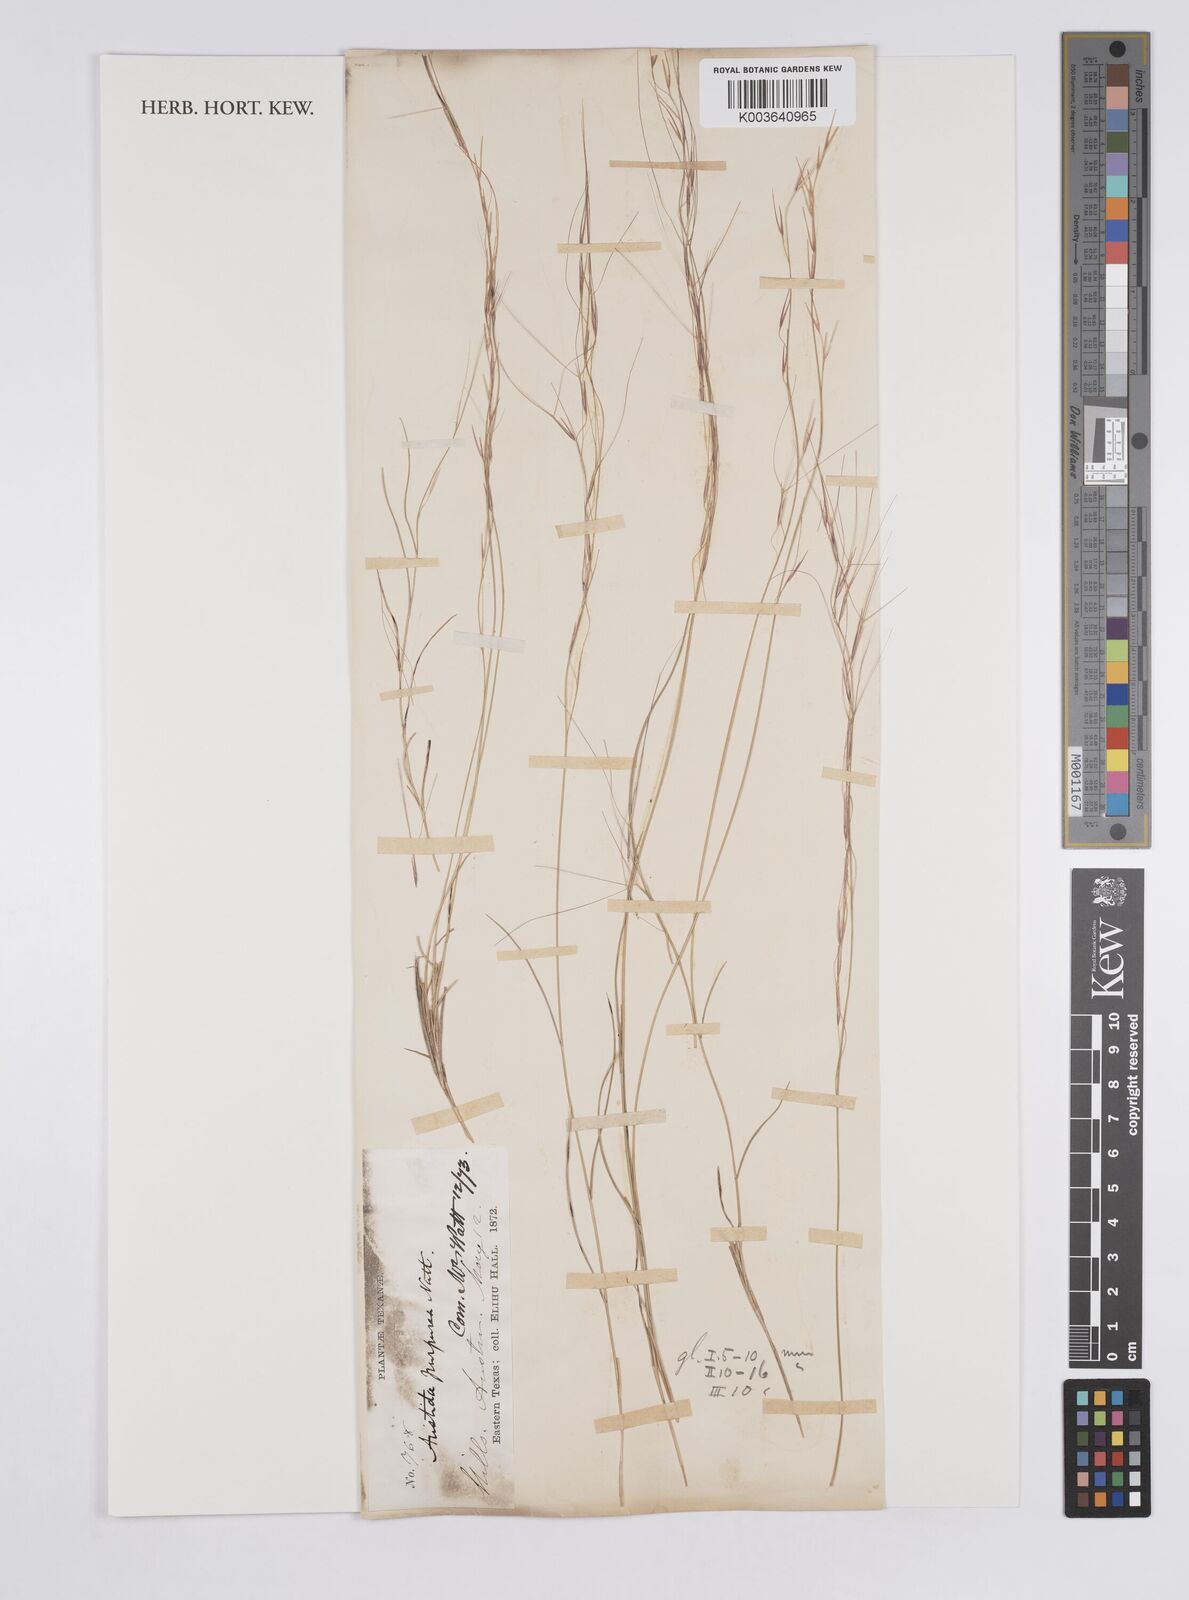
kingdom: Plantae
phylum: Tracheophyta
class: Liliopsida
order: Poales
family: Poaceae
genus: Aristida
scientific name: Aristida purpurea
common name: Purple threeawn
